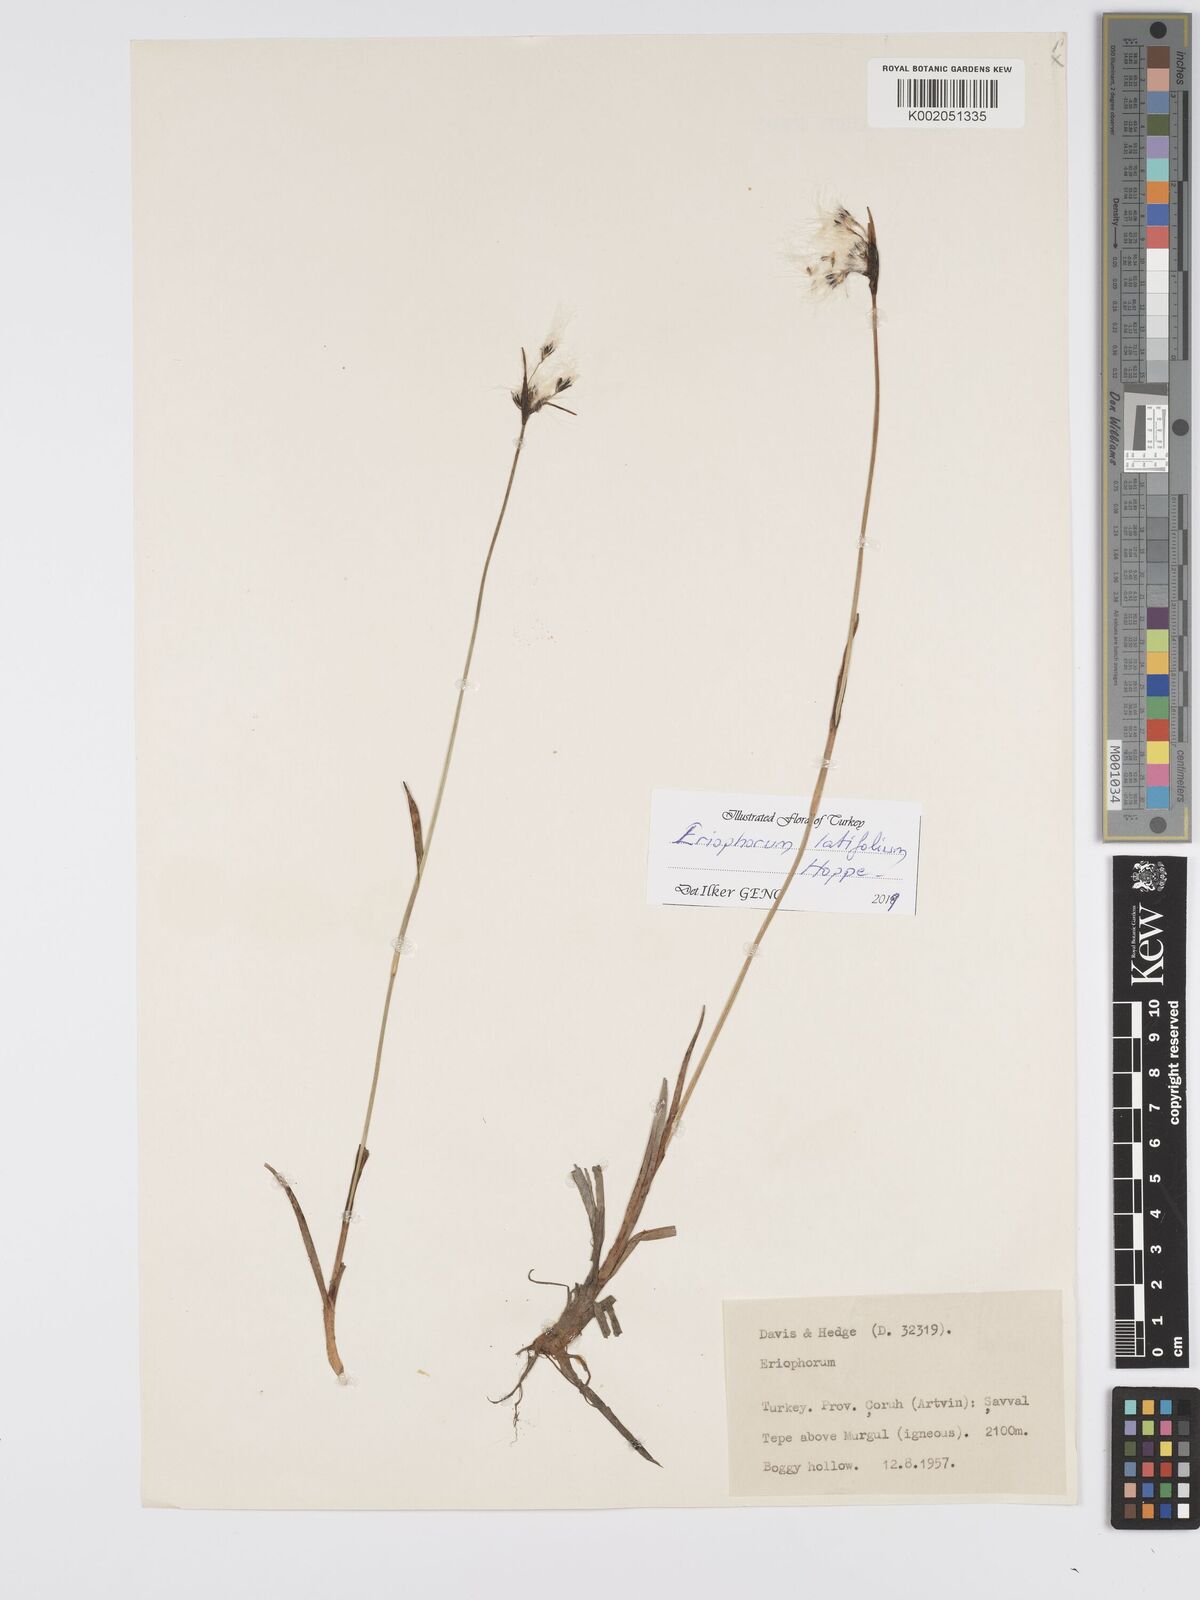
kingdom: Plantae
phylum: Tracheophyta
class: Liliopsida
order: Poales
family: Cyperaceae
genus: Eriophorum
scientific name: Eriophorum gracile
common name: Slender cottongrass
